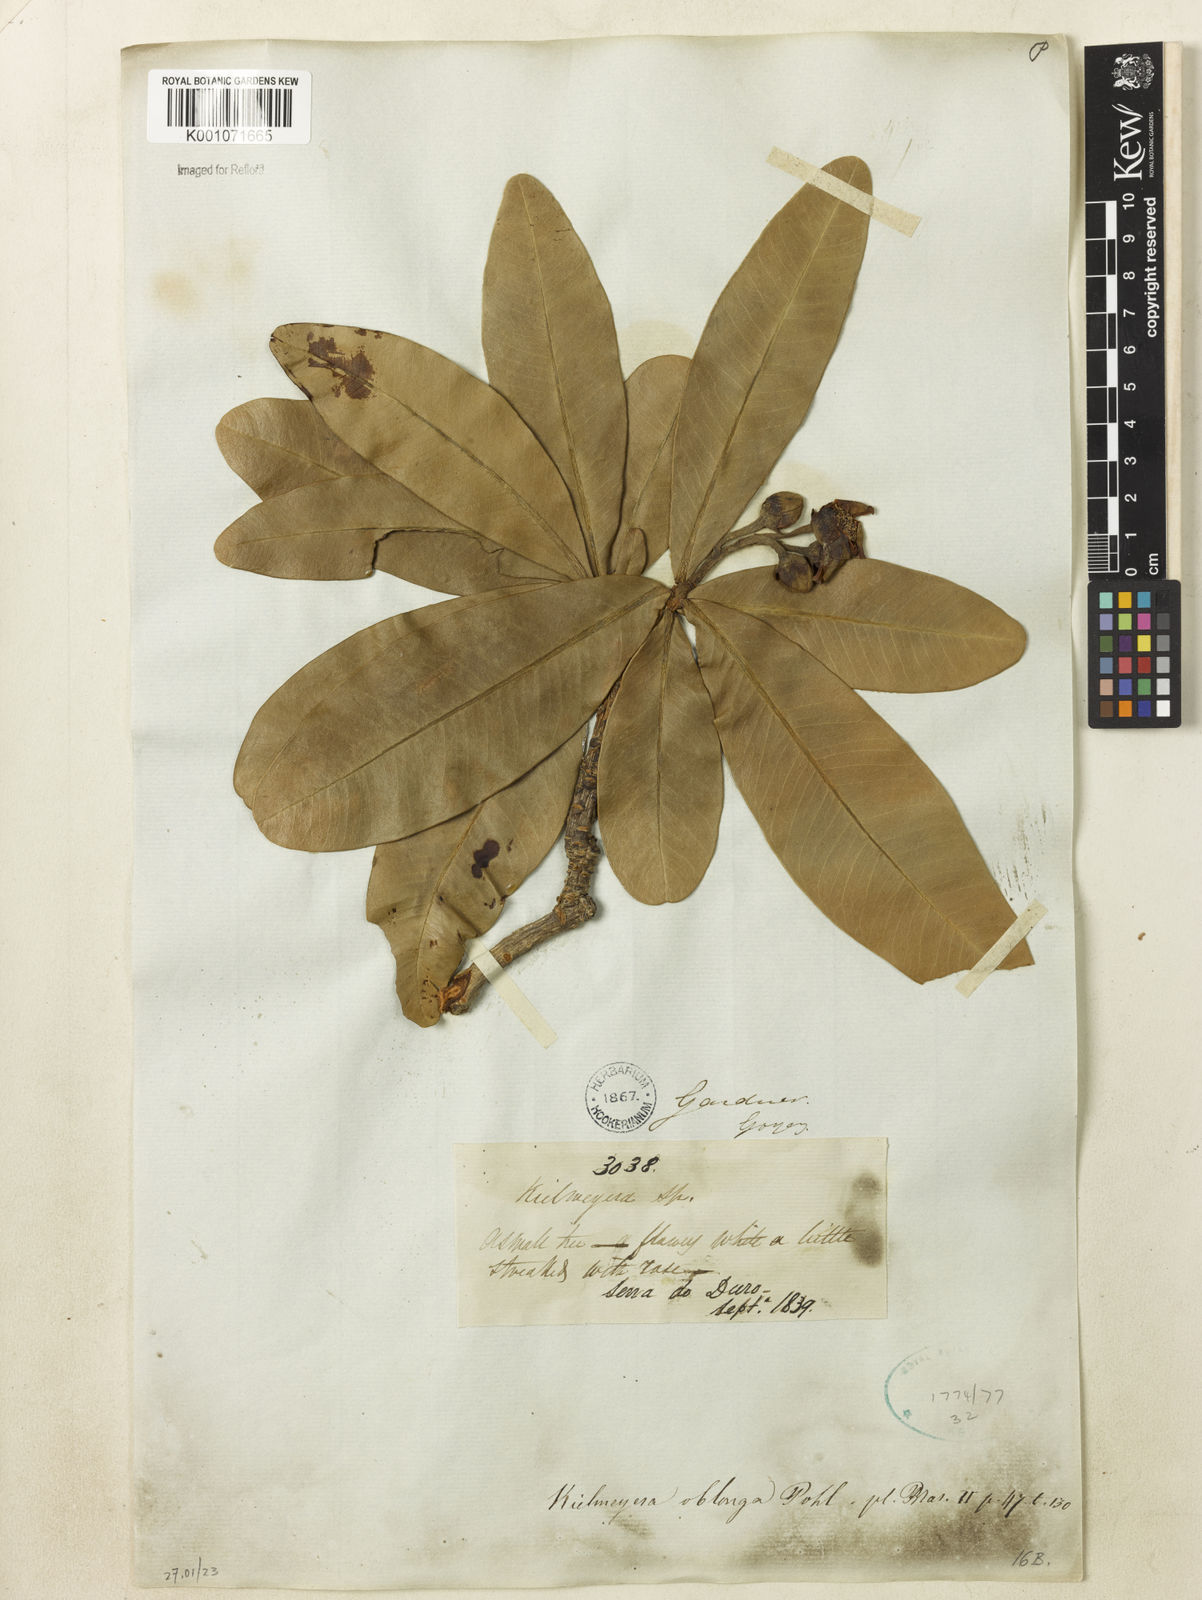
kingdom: Plantae
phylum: Tracheophyta
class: Magnoliopsida
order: Malpighiales
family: Calophyllaceae
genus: Kielmeyera
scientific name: Kielmeyera
